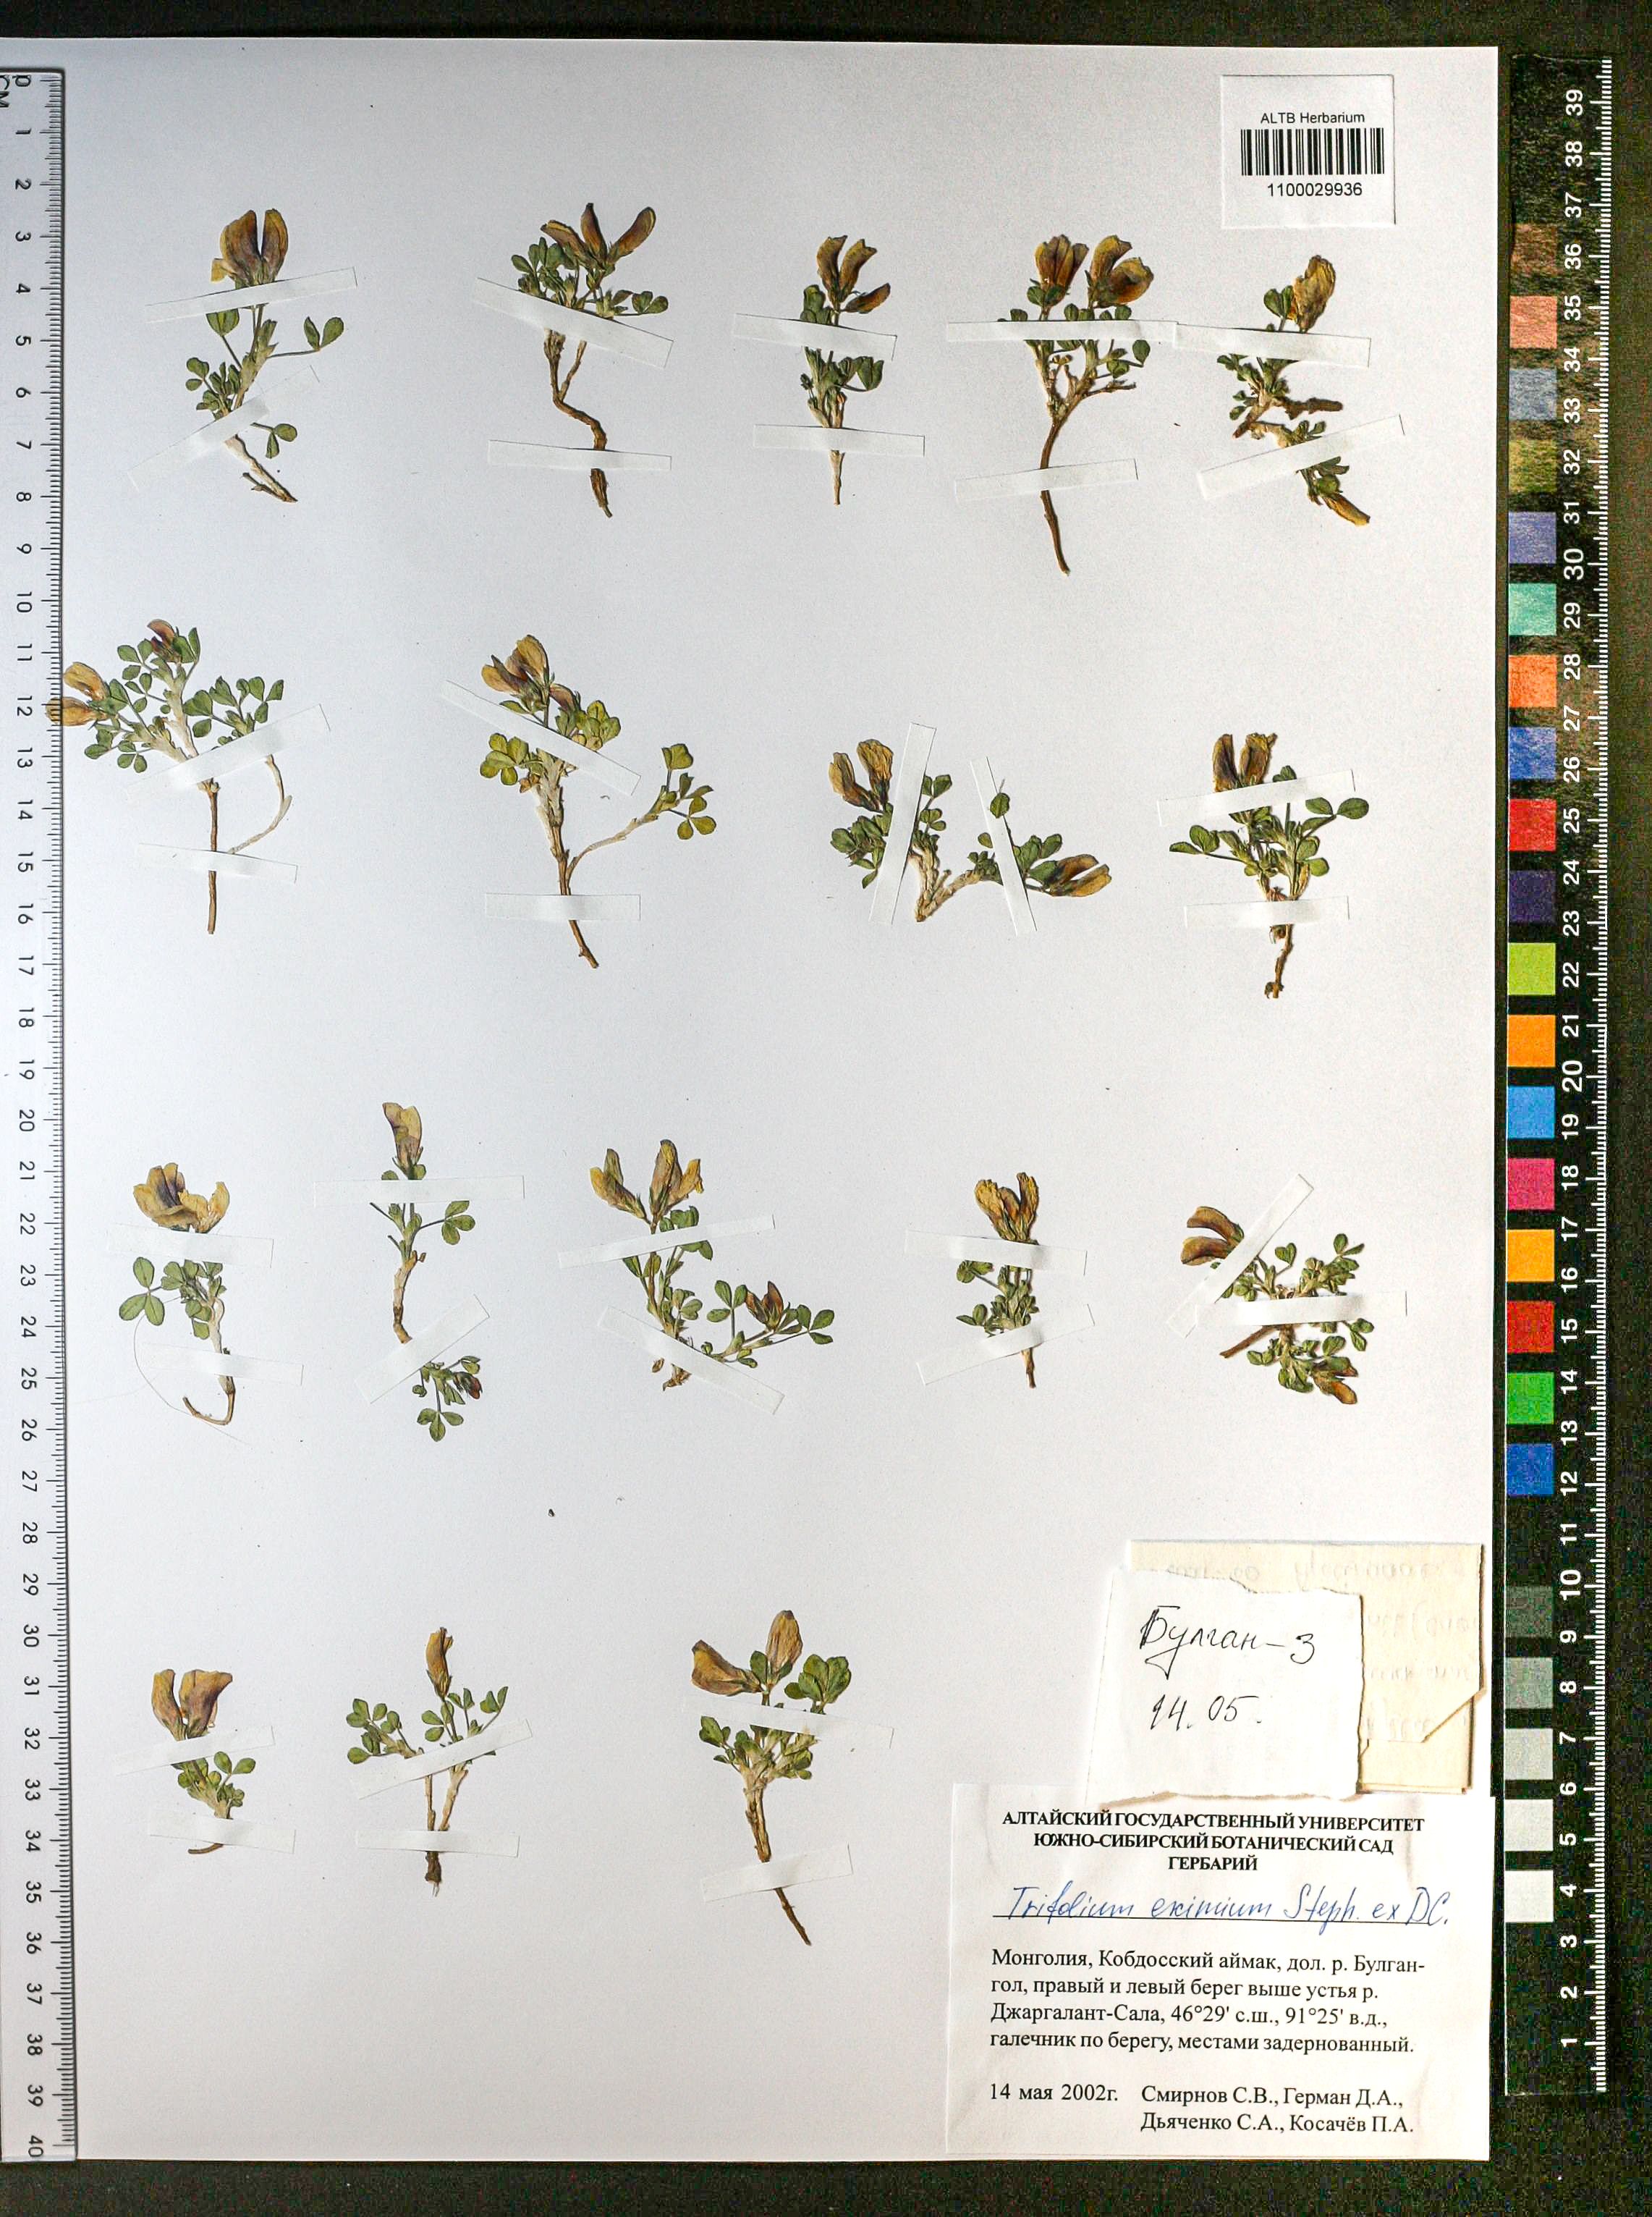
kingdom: Plantae
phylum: Tracheophyta
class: Magnoliopsida
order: Fabales
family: Fabaceae
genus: Trifolium
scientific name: Trifolium eximium
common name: Excellent clover
